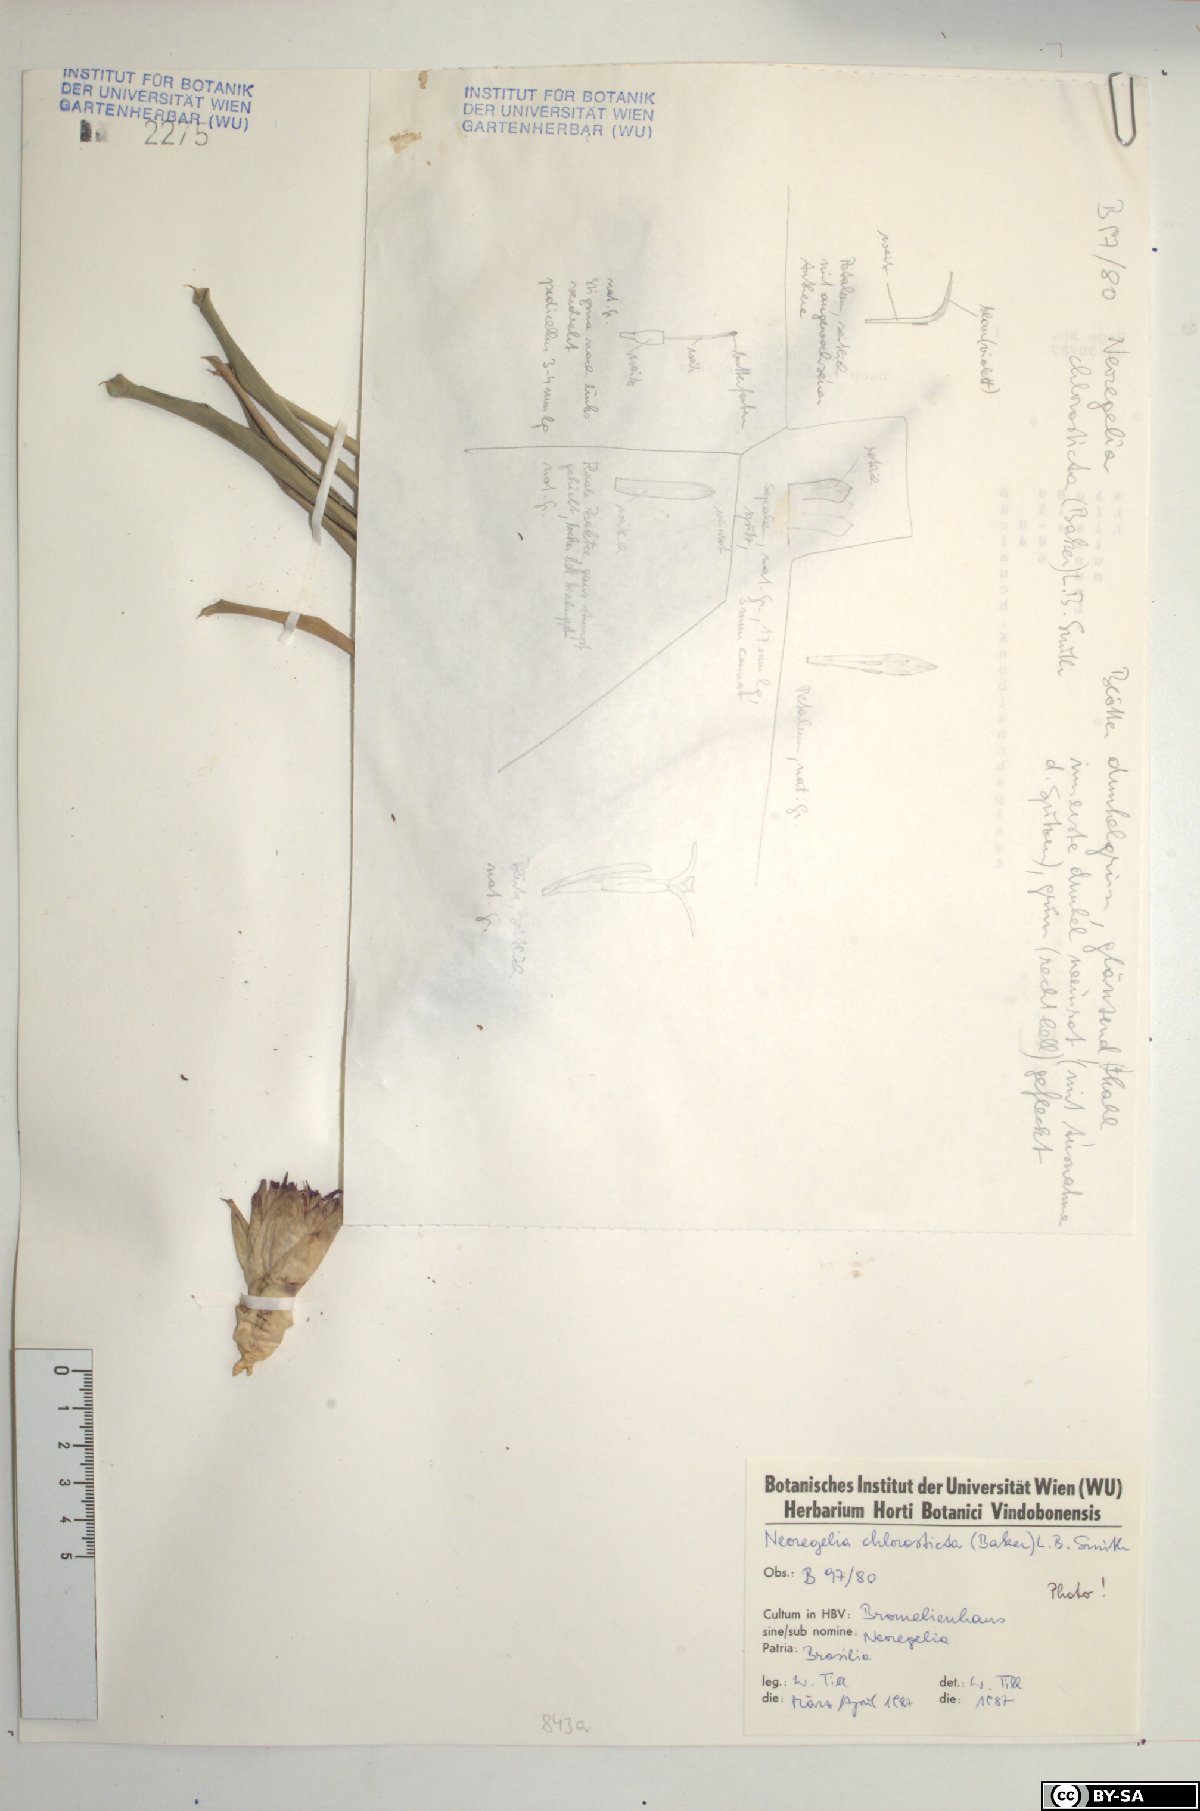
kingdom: Plantae
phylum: Tracheophyta
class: Liliopsida
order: Poales
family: Bromeliaceae
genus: Neoregelia
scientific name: Neoregelia chlorosticta
